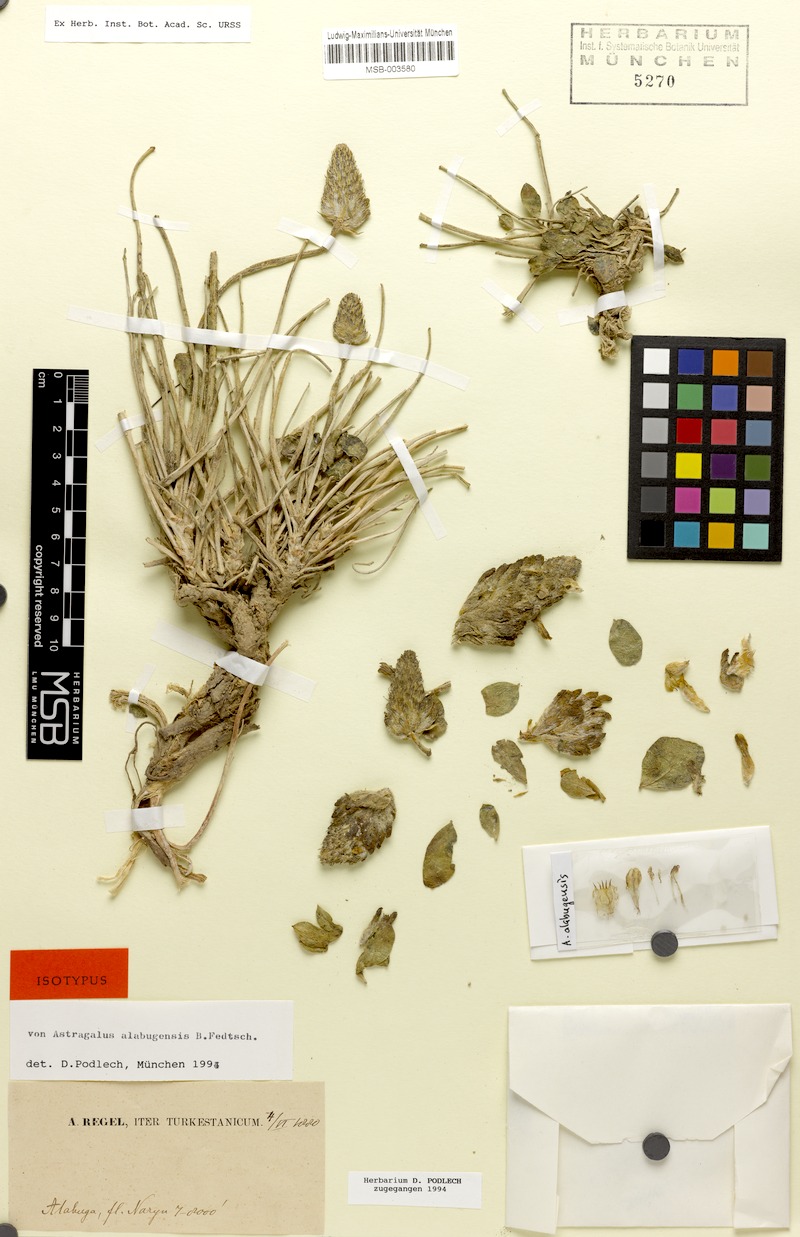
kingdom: Plantae
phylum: Tracheophyta
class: Magnoliopsida
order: Fabales
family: Fabaceae
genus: Astragalus
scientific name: Astragalus alabugensis
